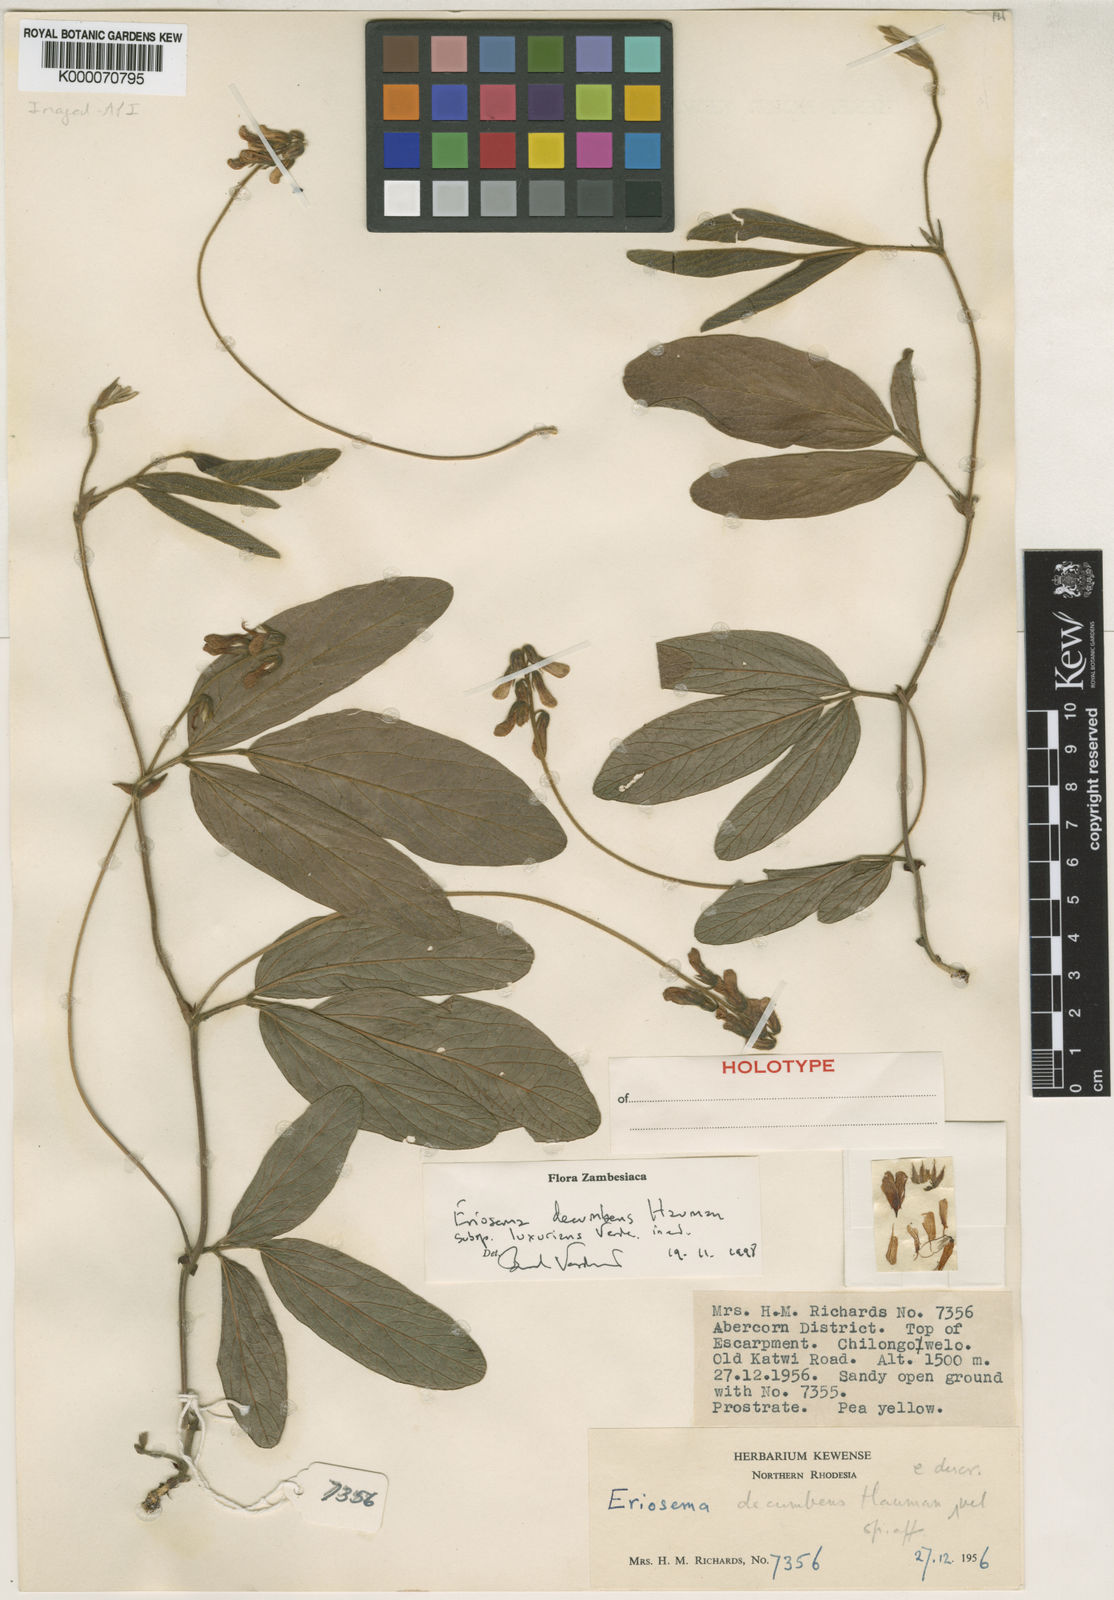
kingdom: Plantae
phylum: Tracheophyta
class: Magnoliopsida
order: Fabales
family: Fabaceae
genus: Eriosema
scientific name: Eriosema decumbens
